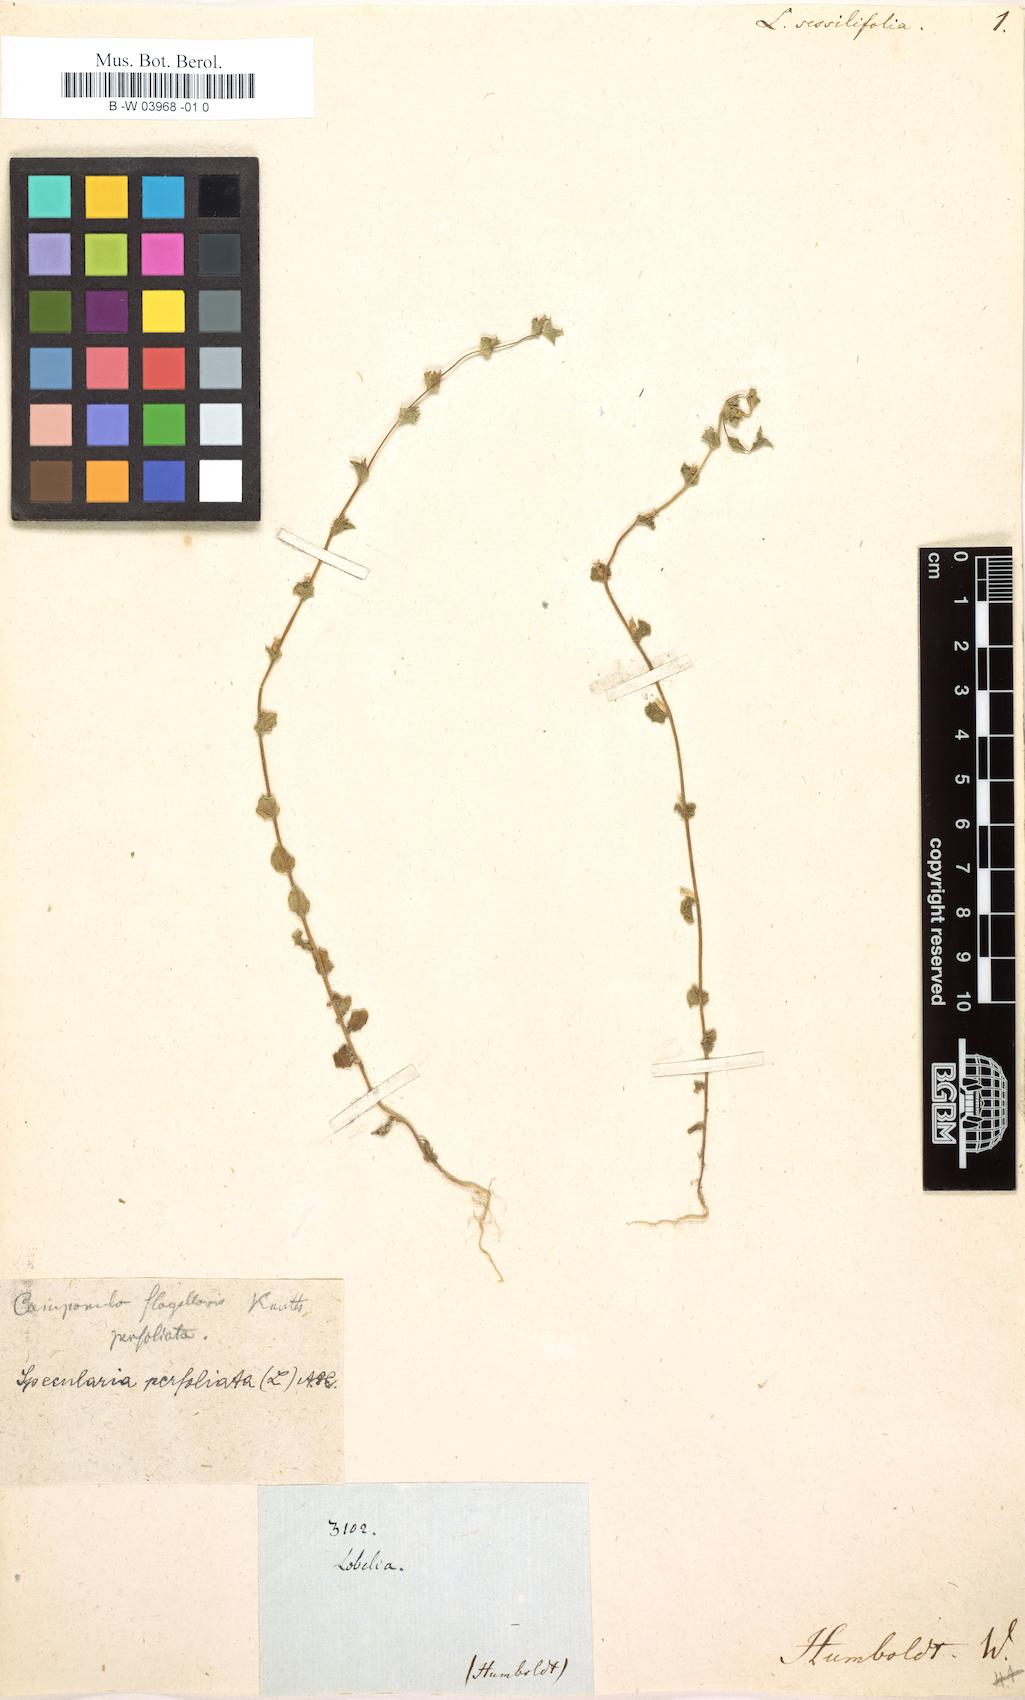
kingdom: Plantae
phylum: Tracheophyta
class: Magnoliopsida
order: Asterales
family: Campanulaceae
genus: Lobelia
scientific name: Lobelia sessilifolia
